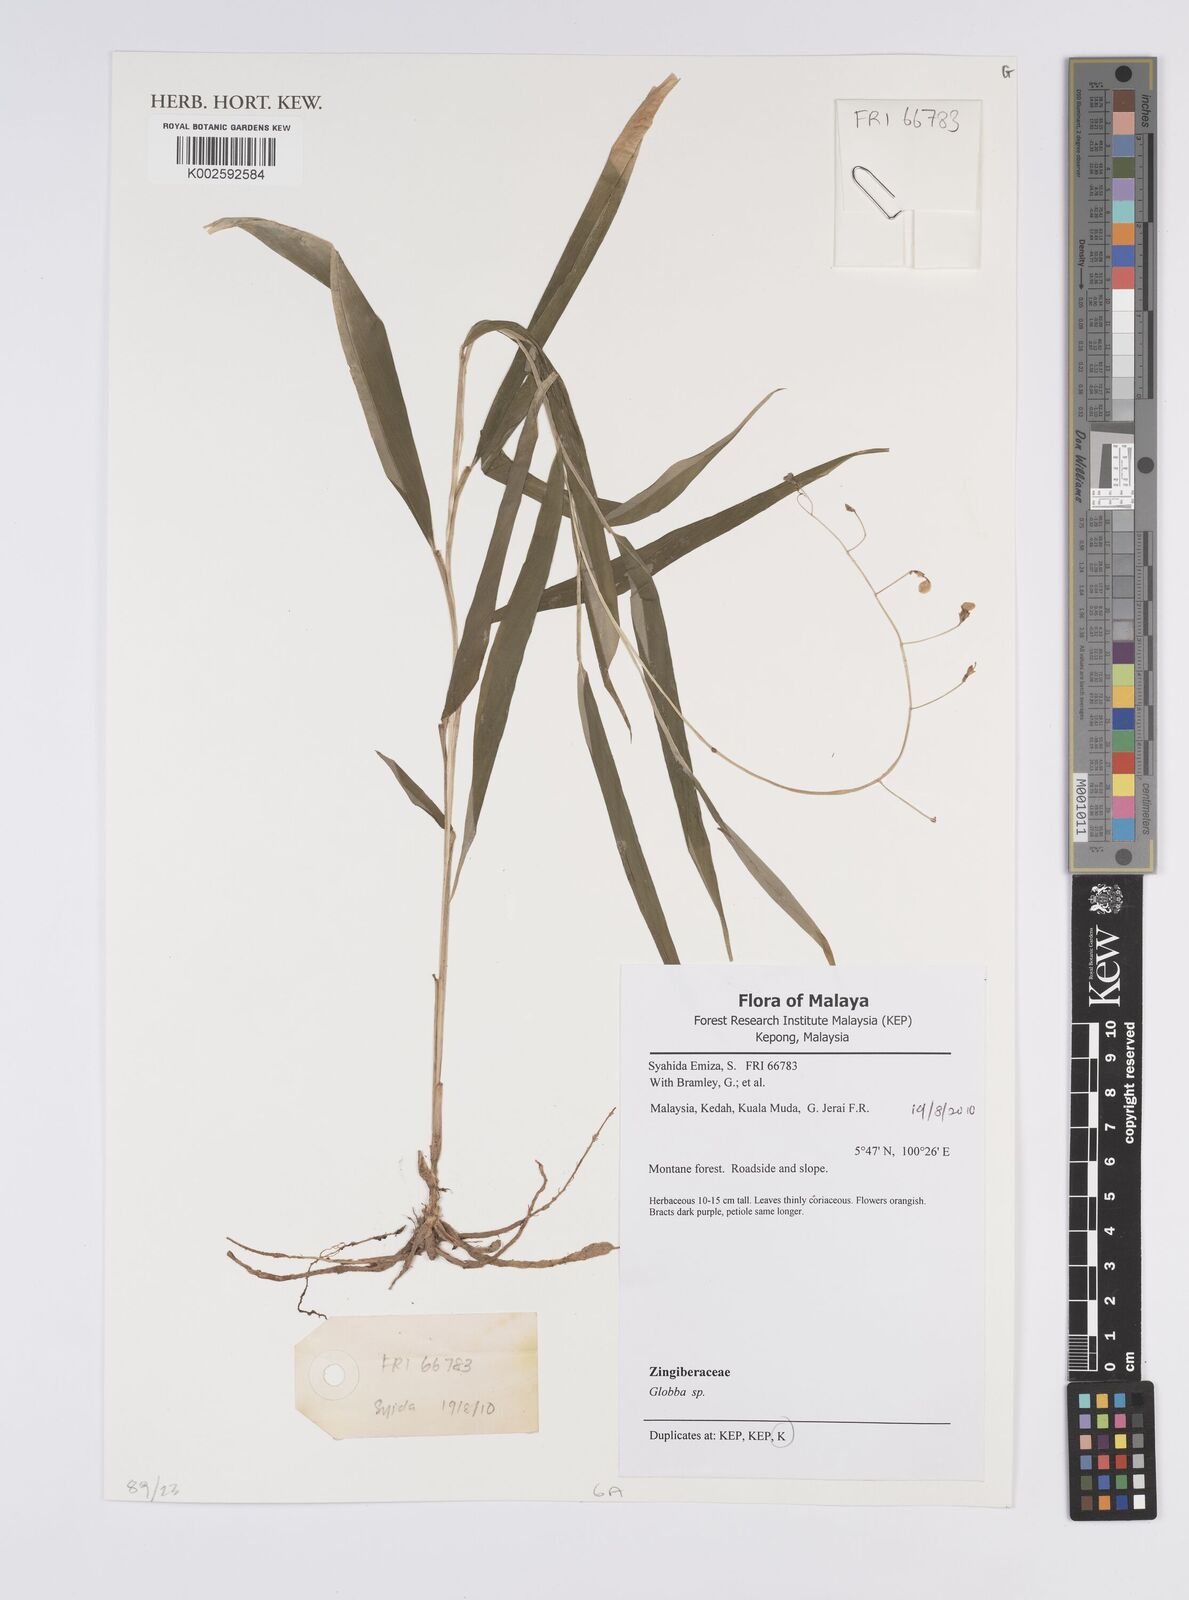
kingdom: Plantae
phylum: Tracheophyta
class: Liliopsida
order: Zingiberales
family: Zingiberaceae
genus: Globba
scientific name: Globba
